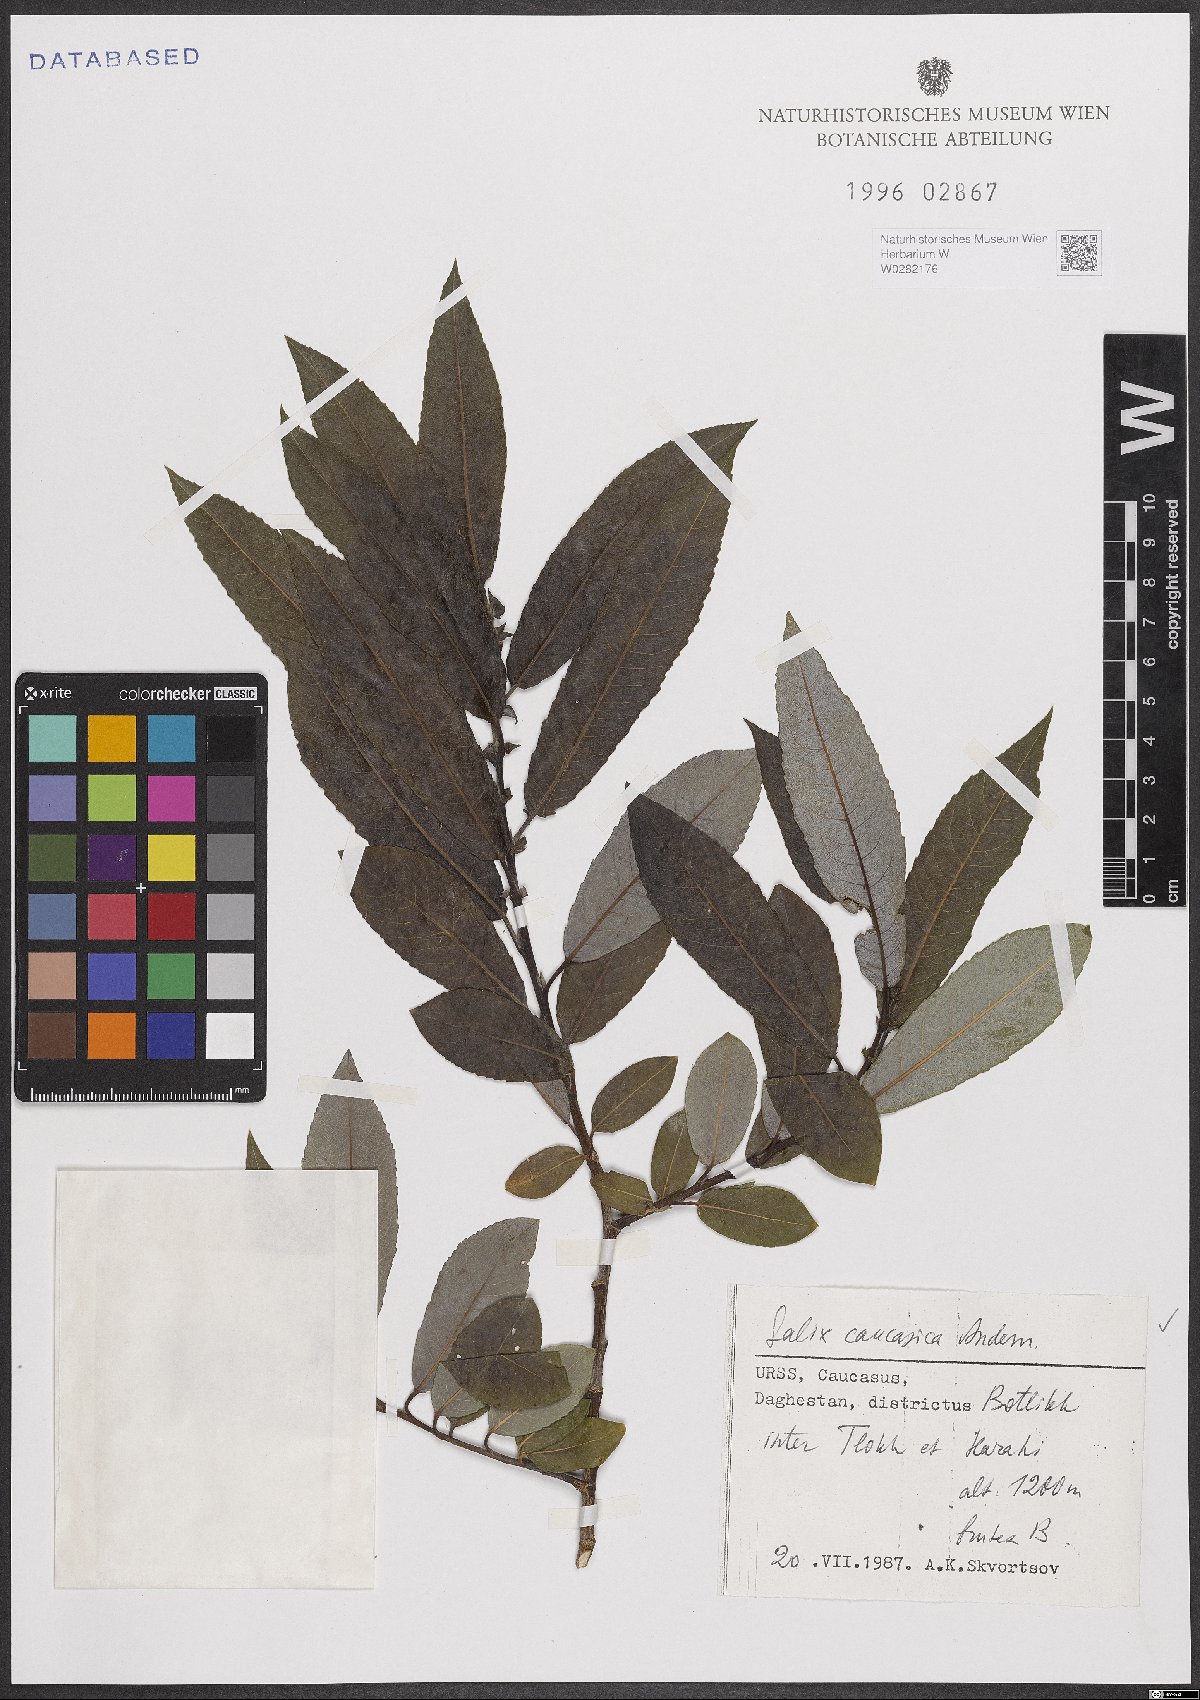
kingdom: Plantae
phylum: Tracheophyta
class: Magnoliopsida
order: Malpighiales
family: Salicaceae
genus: Salix
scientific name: Salix caucasica
